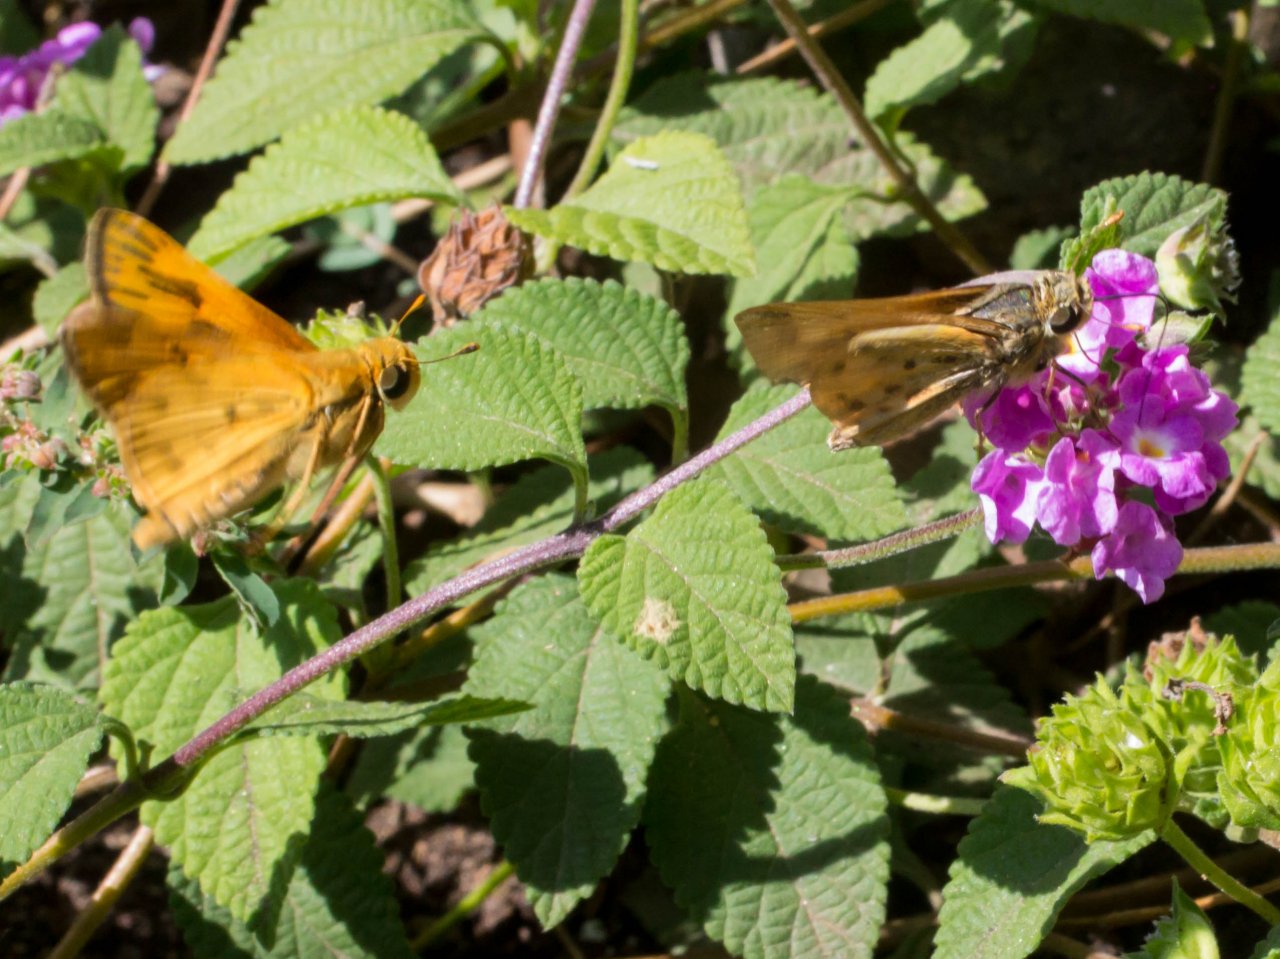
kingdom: Animalia
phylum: Arthropoda
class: Insecta
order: Lepidoptera
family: Hesperiidae
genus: Hylephila
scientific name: Hylephila phyleus
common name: Fiery Skipper
